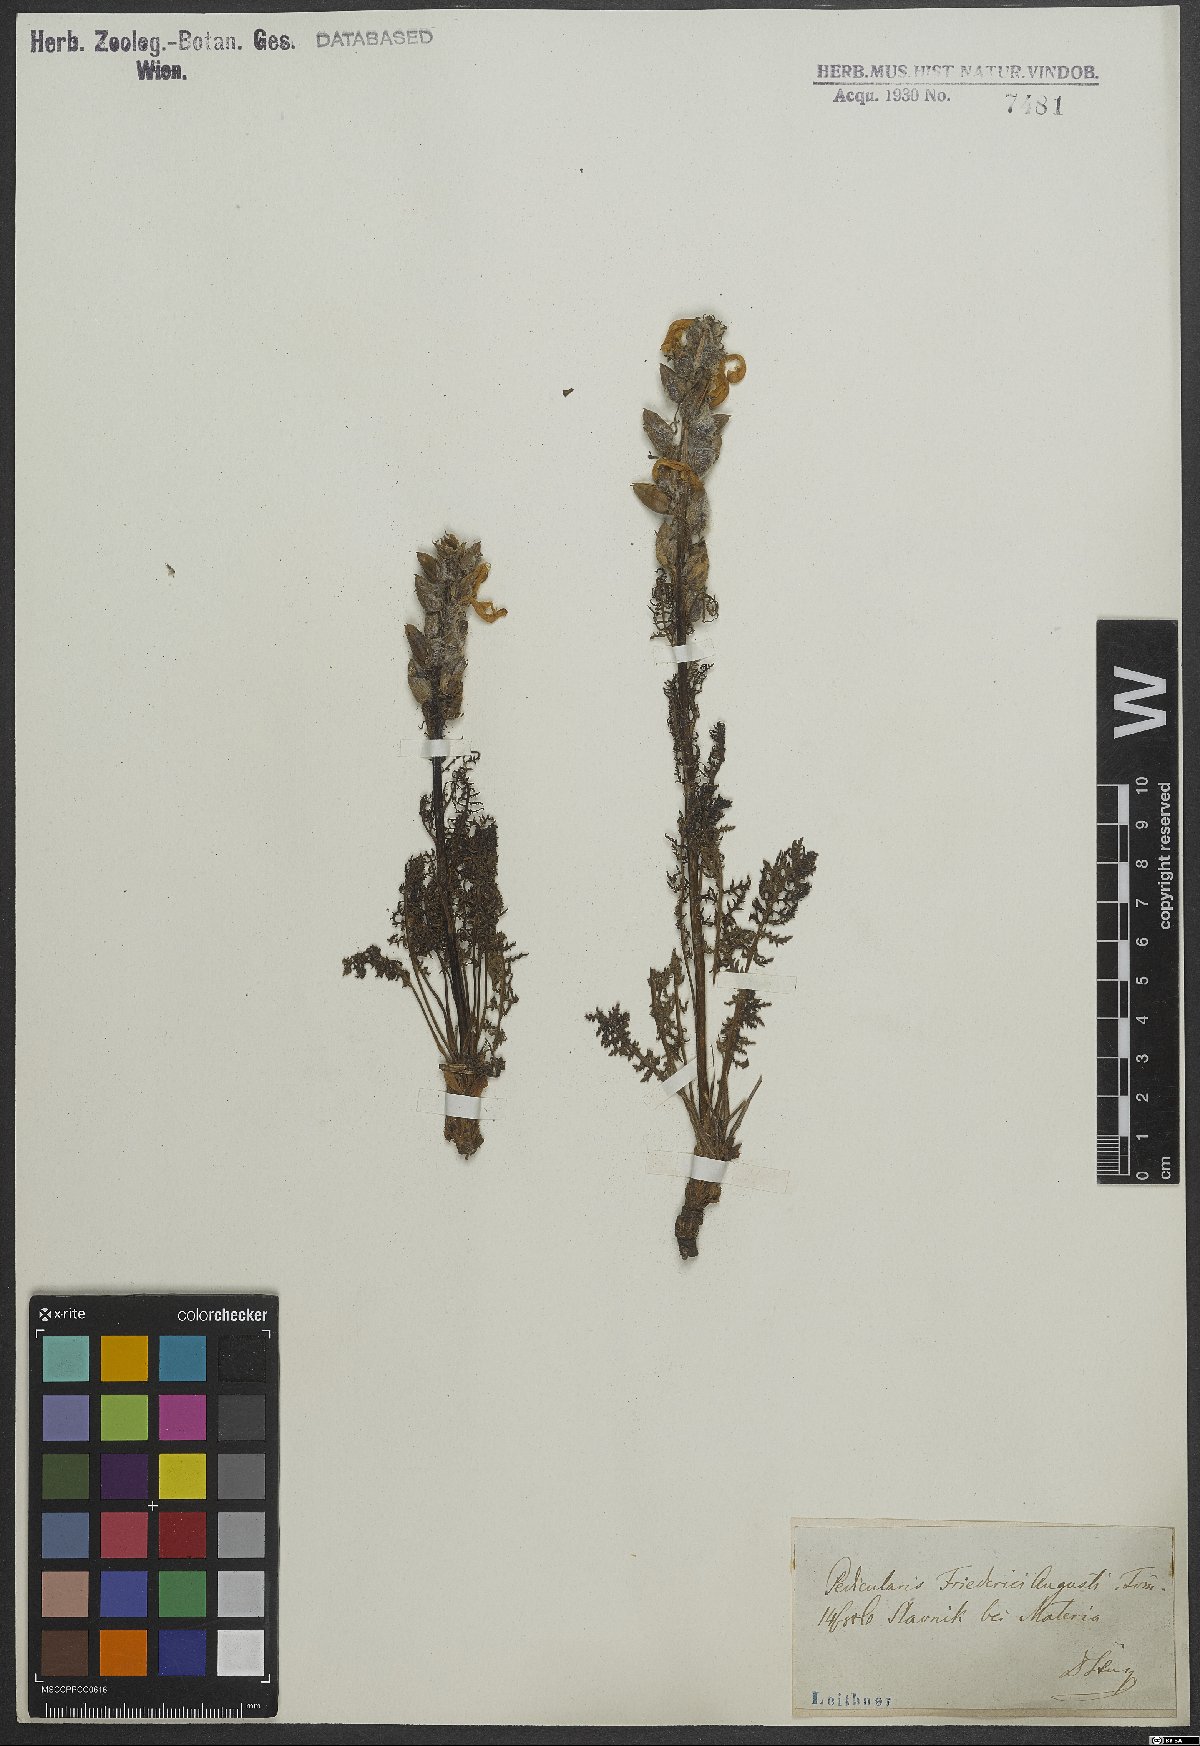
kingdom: Plantae
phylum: Tracheophyta
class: Magnoliopsida
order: Lamiales
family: Orobanchaceae
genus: Pedicularis
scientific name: Pedicularis friderici-augusti
